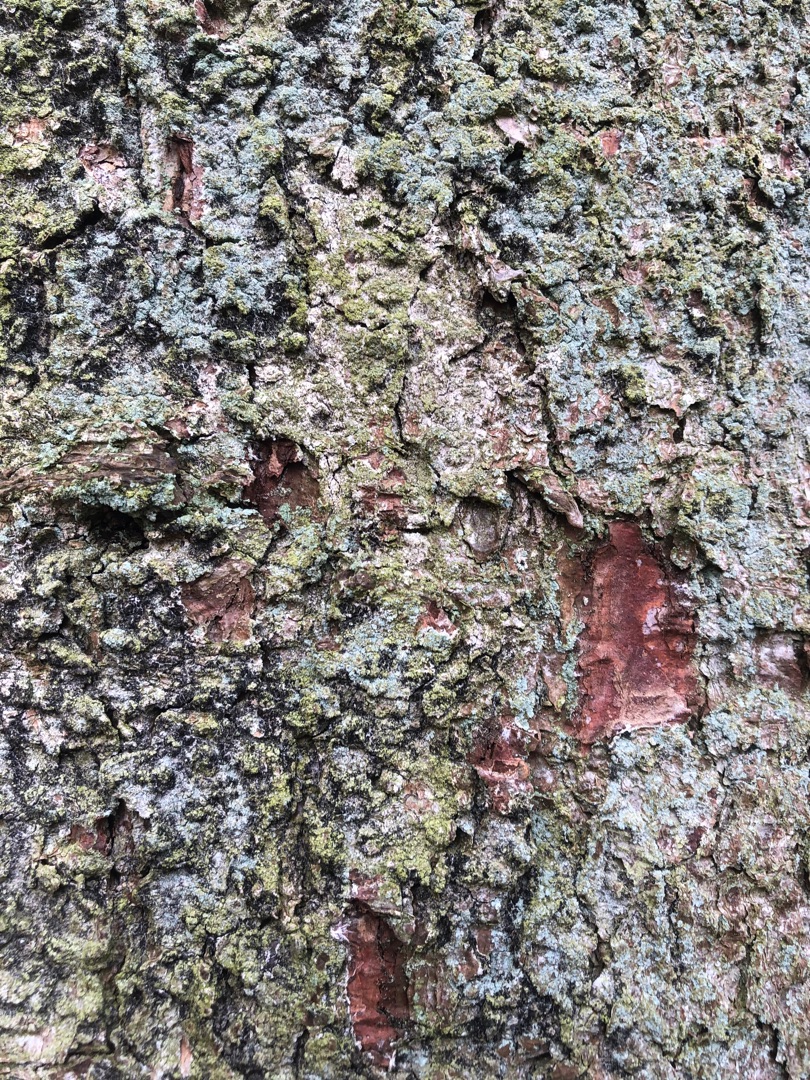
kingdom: Fungi
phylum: Ascomycota
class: Lecanoromycetes
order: Lecanorales
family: Stereocaulaceae
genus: Lepraria
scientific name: Lepraria
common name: Støvlav
